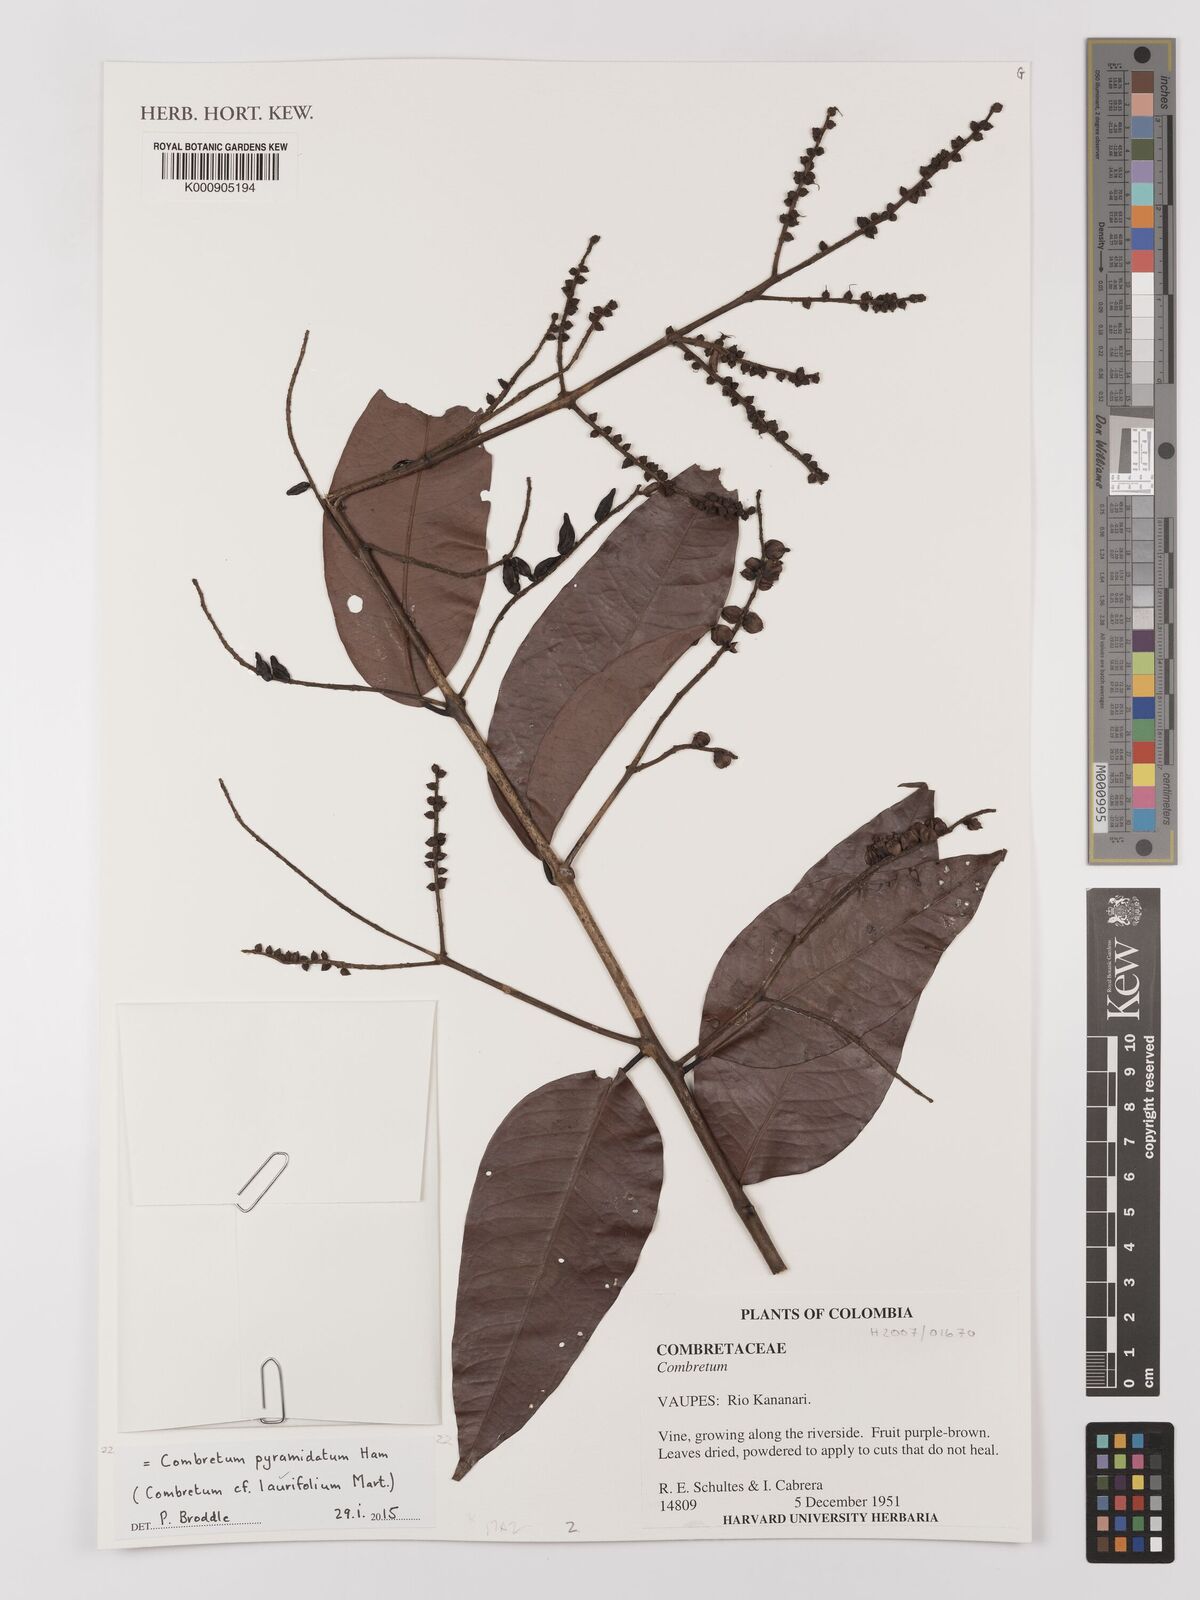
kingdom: Plantae
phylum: Tracheophyta
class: Magnoliopsida
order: Myrtales
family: Combretaceae
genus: Combretum
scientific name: Combretum laurifolium
